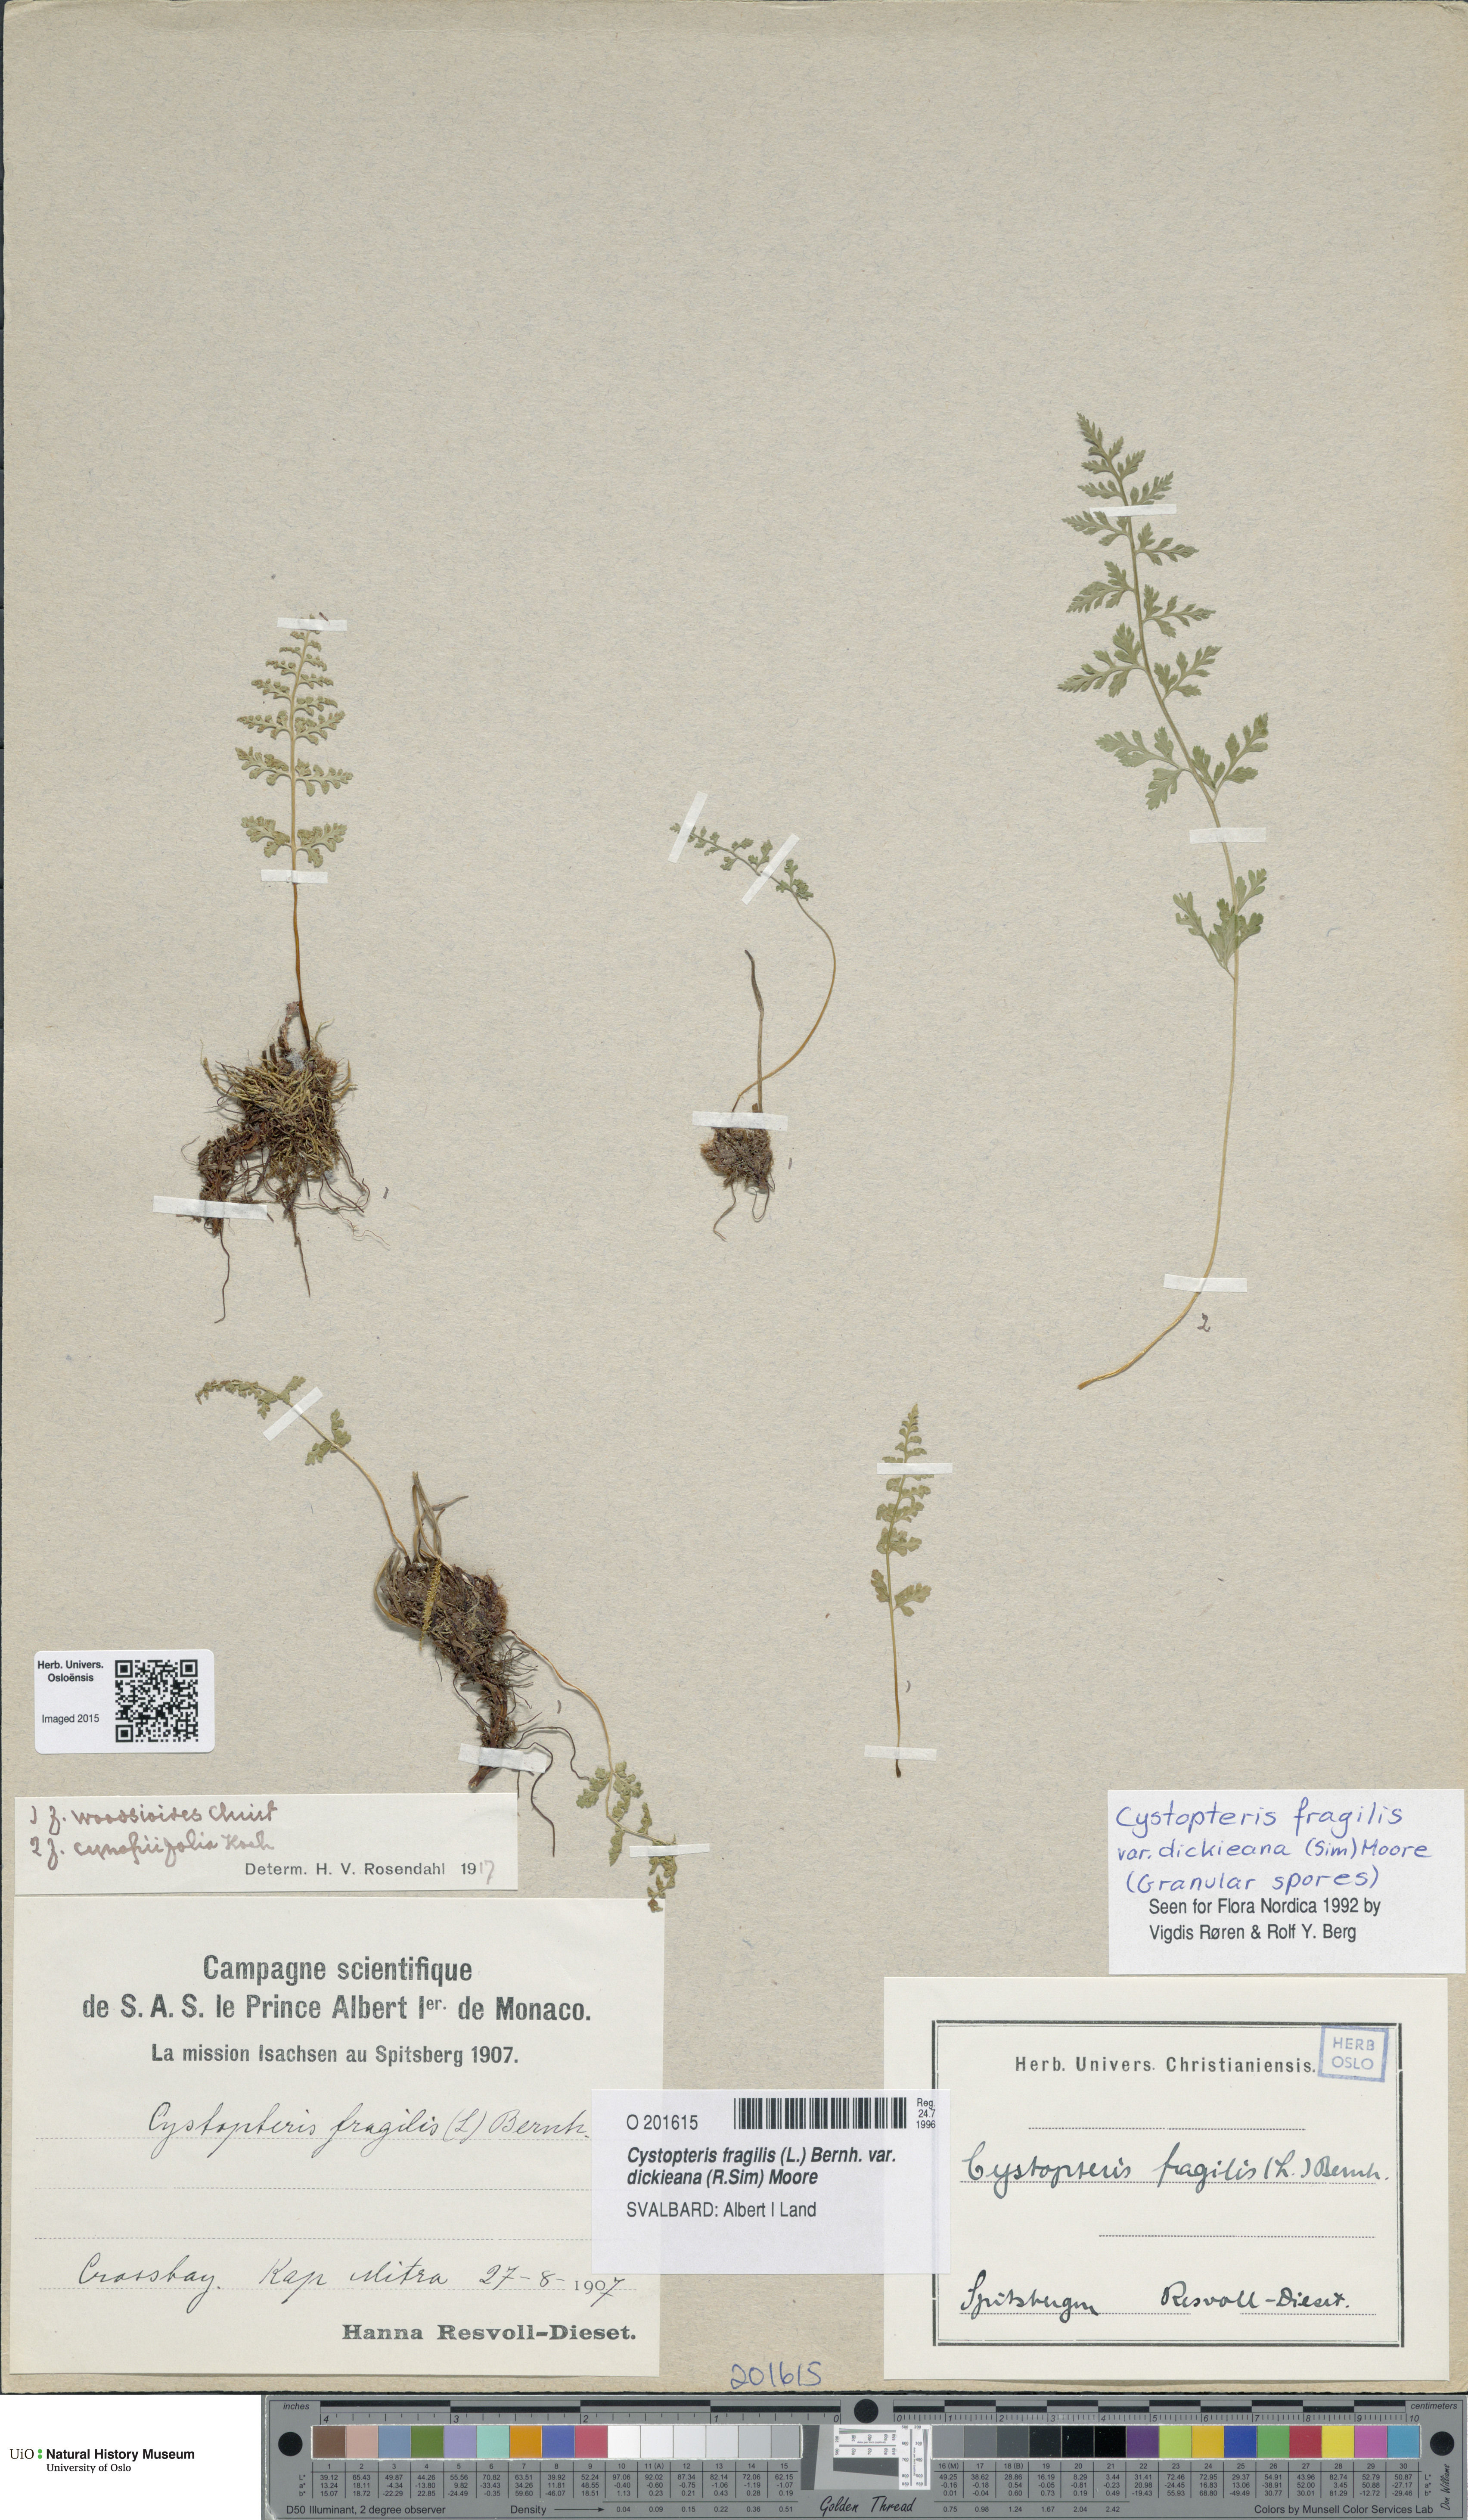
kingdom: Plantae
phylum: Tracheophyta
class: Polypodiopsida
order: Polypodiales
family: Cystopteridaceae
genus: Cystopteris
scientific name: Cystopteris dickieana
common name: Dickie's bladder-fern
